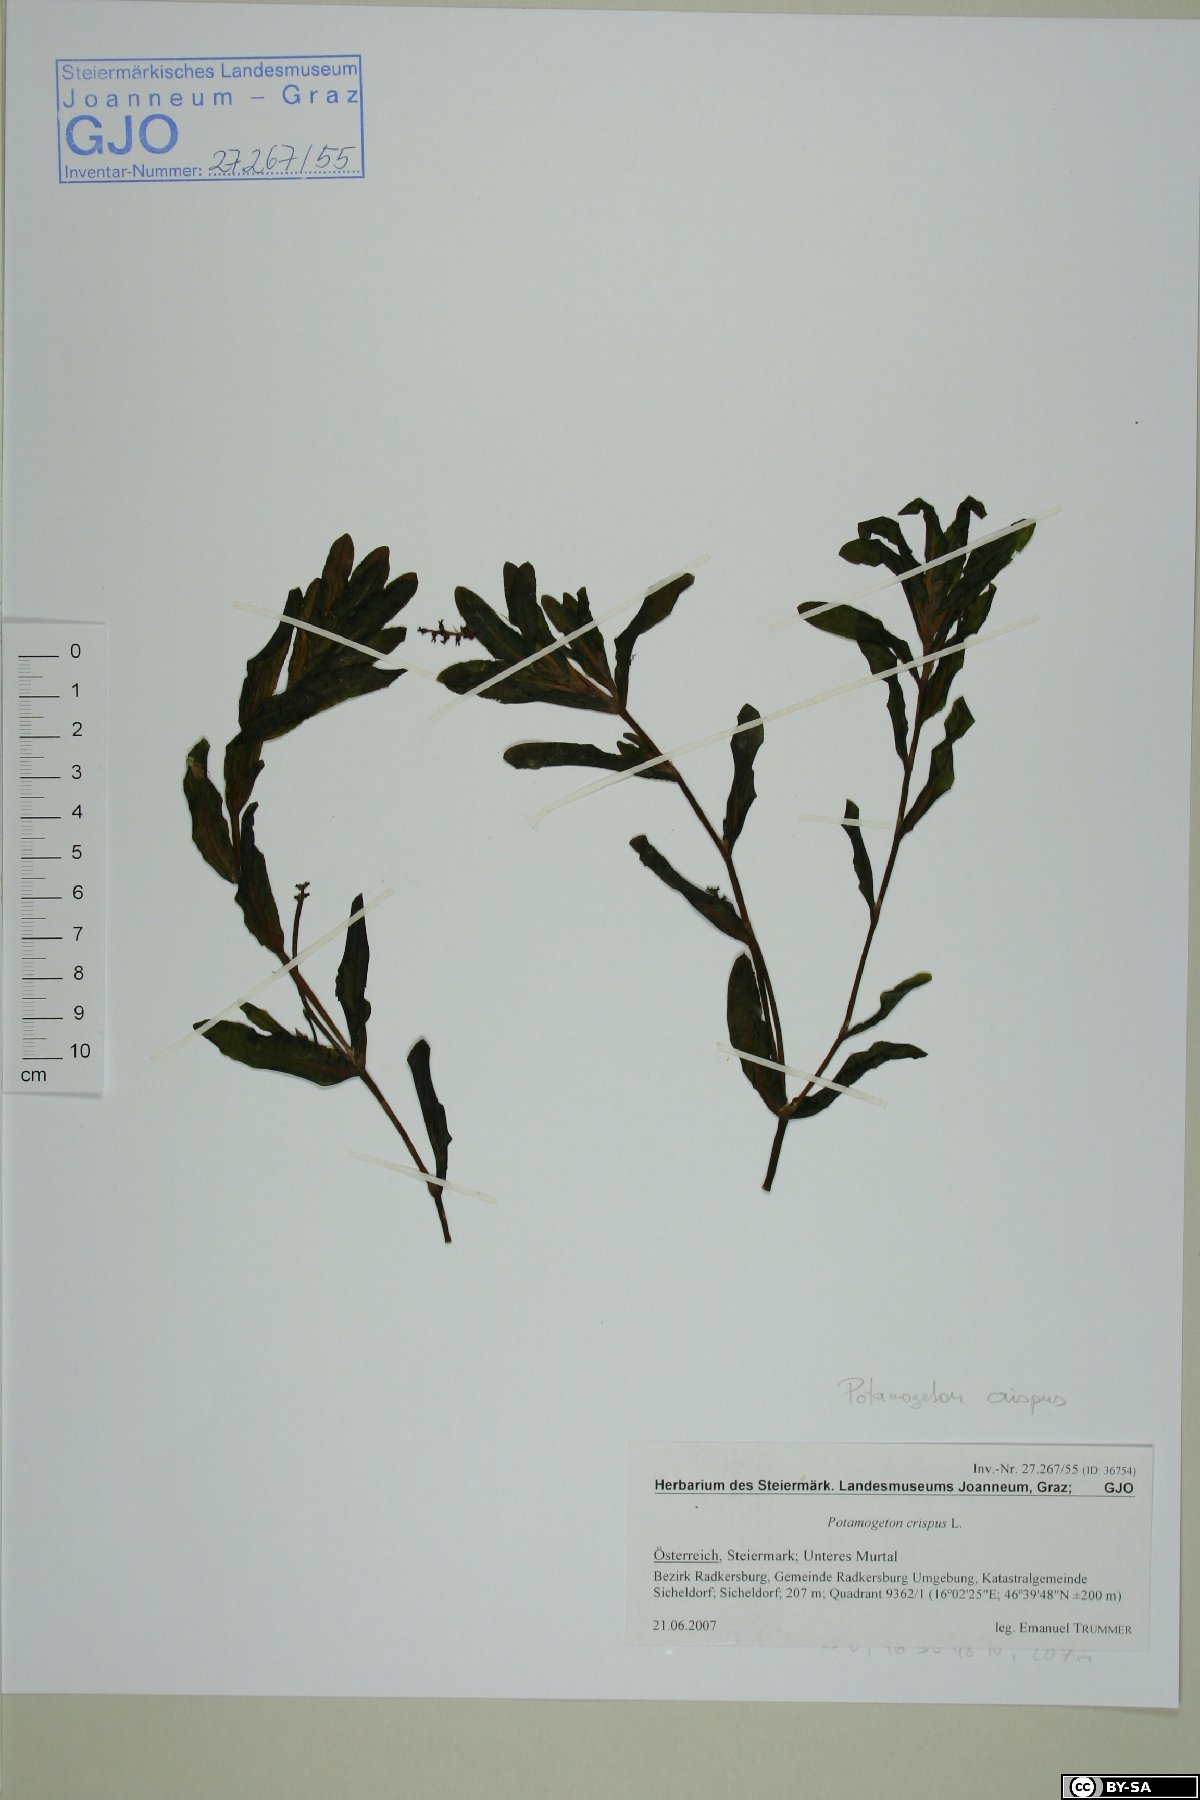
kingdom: Plantae
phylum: Tracheophyta
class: Liliopsida
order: Alismatales
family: Potamogetonaceae
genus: Potamogeton
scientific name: Potamogeton crispus
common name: Curled pondweed
